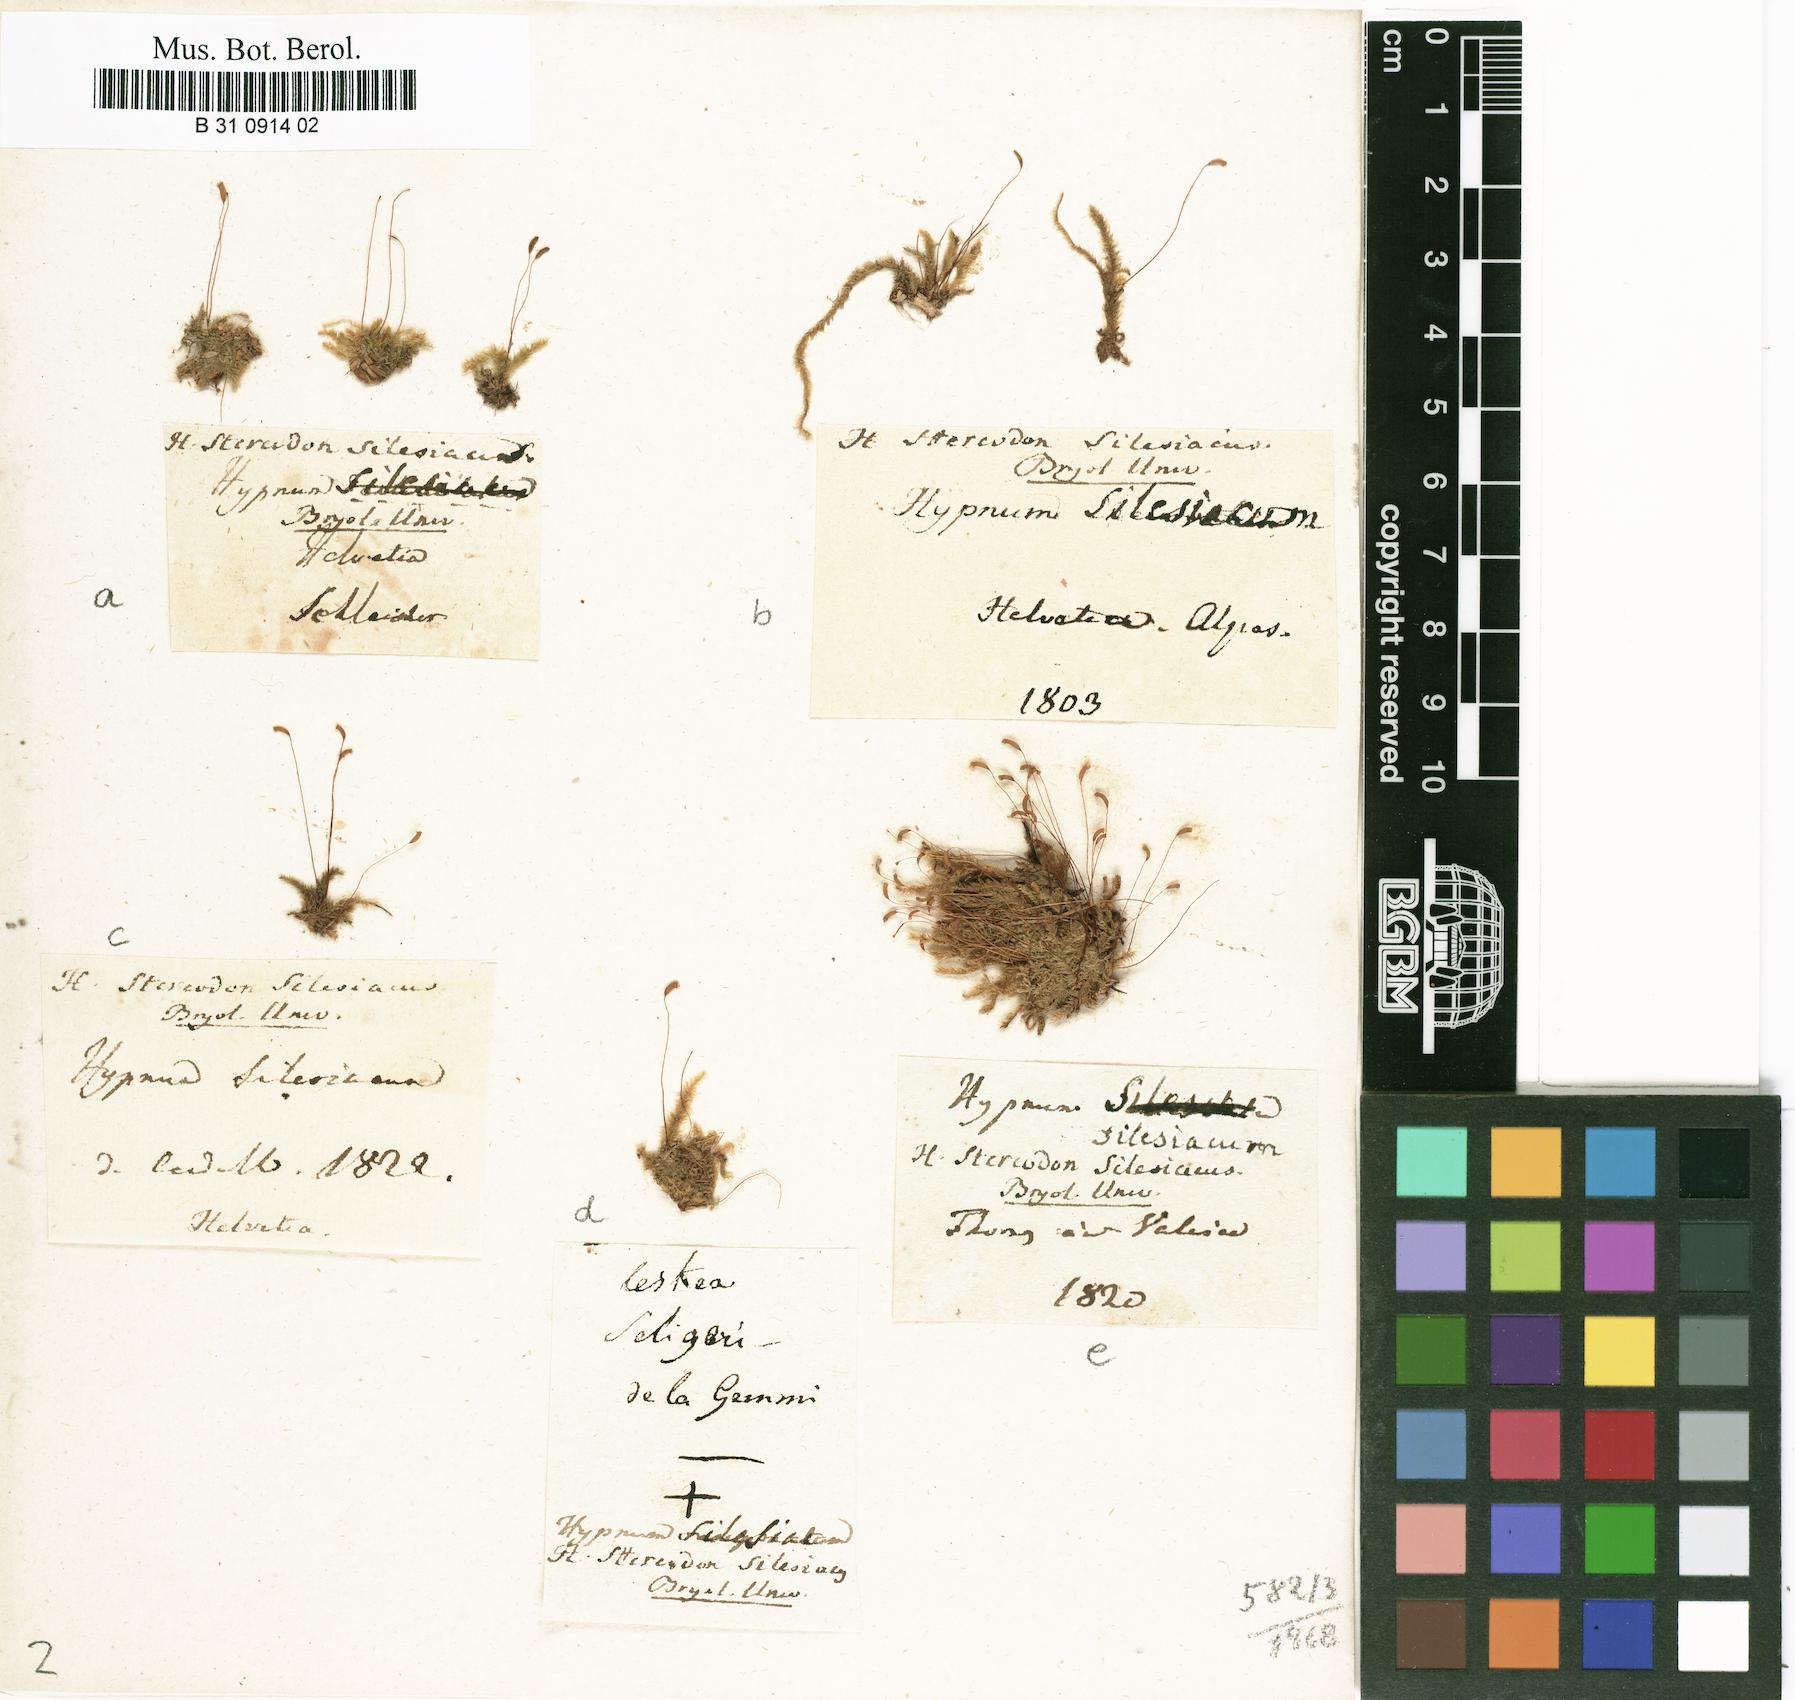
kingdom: Plantae
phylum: Bryophyta
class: Bryopsida
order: Hypnales
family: Plagiotheciaceae
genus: Herzogiella
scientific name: Herzogiella seligeri
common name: Silesian feather-moss
